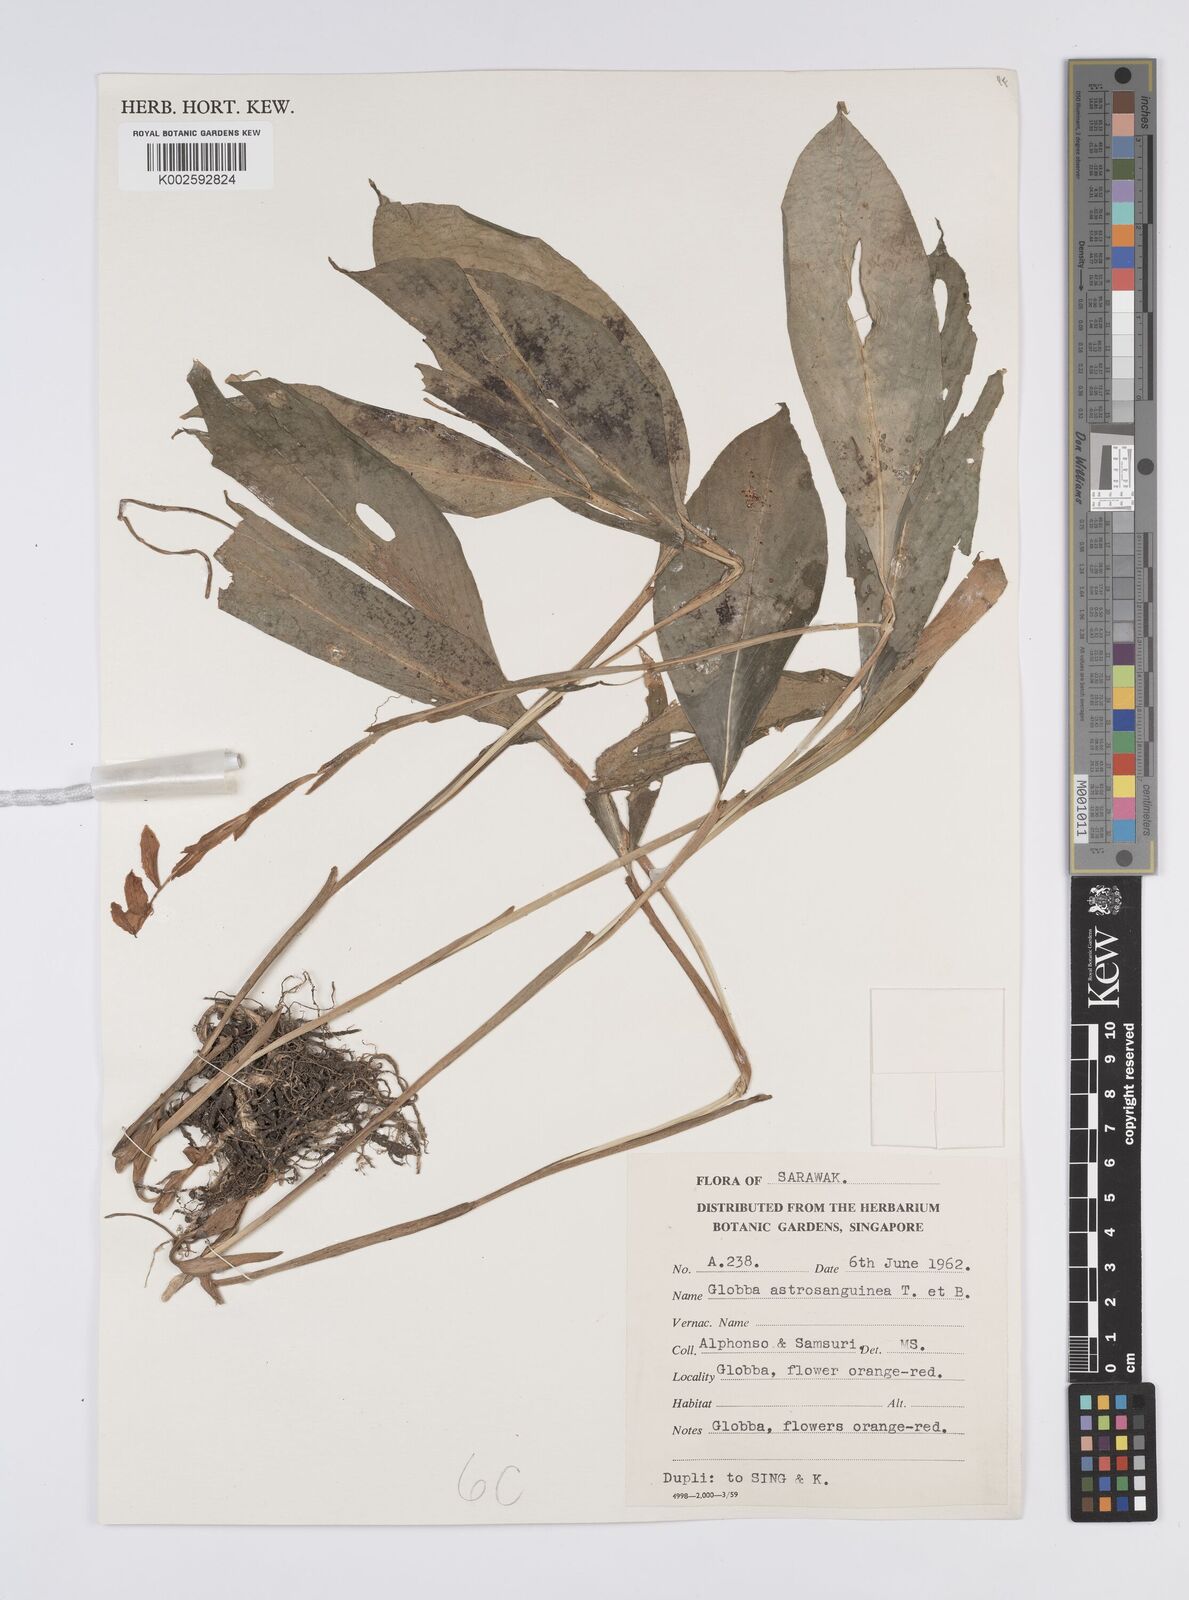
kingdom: Plantae
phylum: Tracheophyta
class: Liliopsida
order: Zingiberales
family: Zingiberaceae
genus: Globba
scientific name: Globba atrosanguinea
